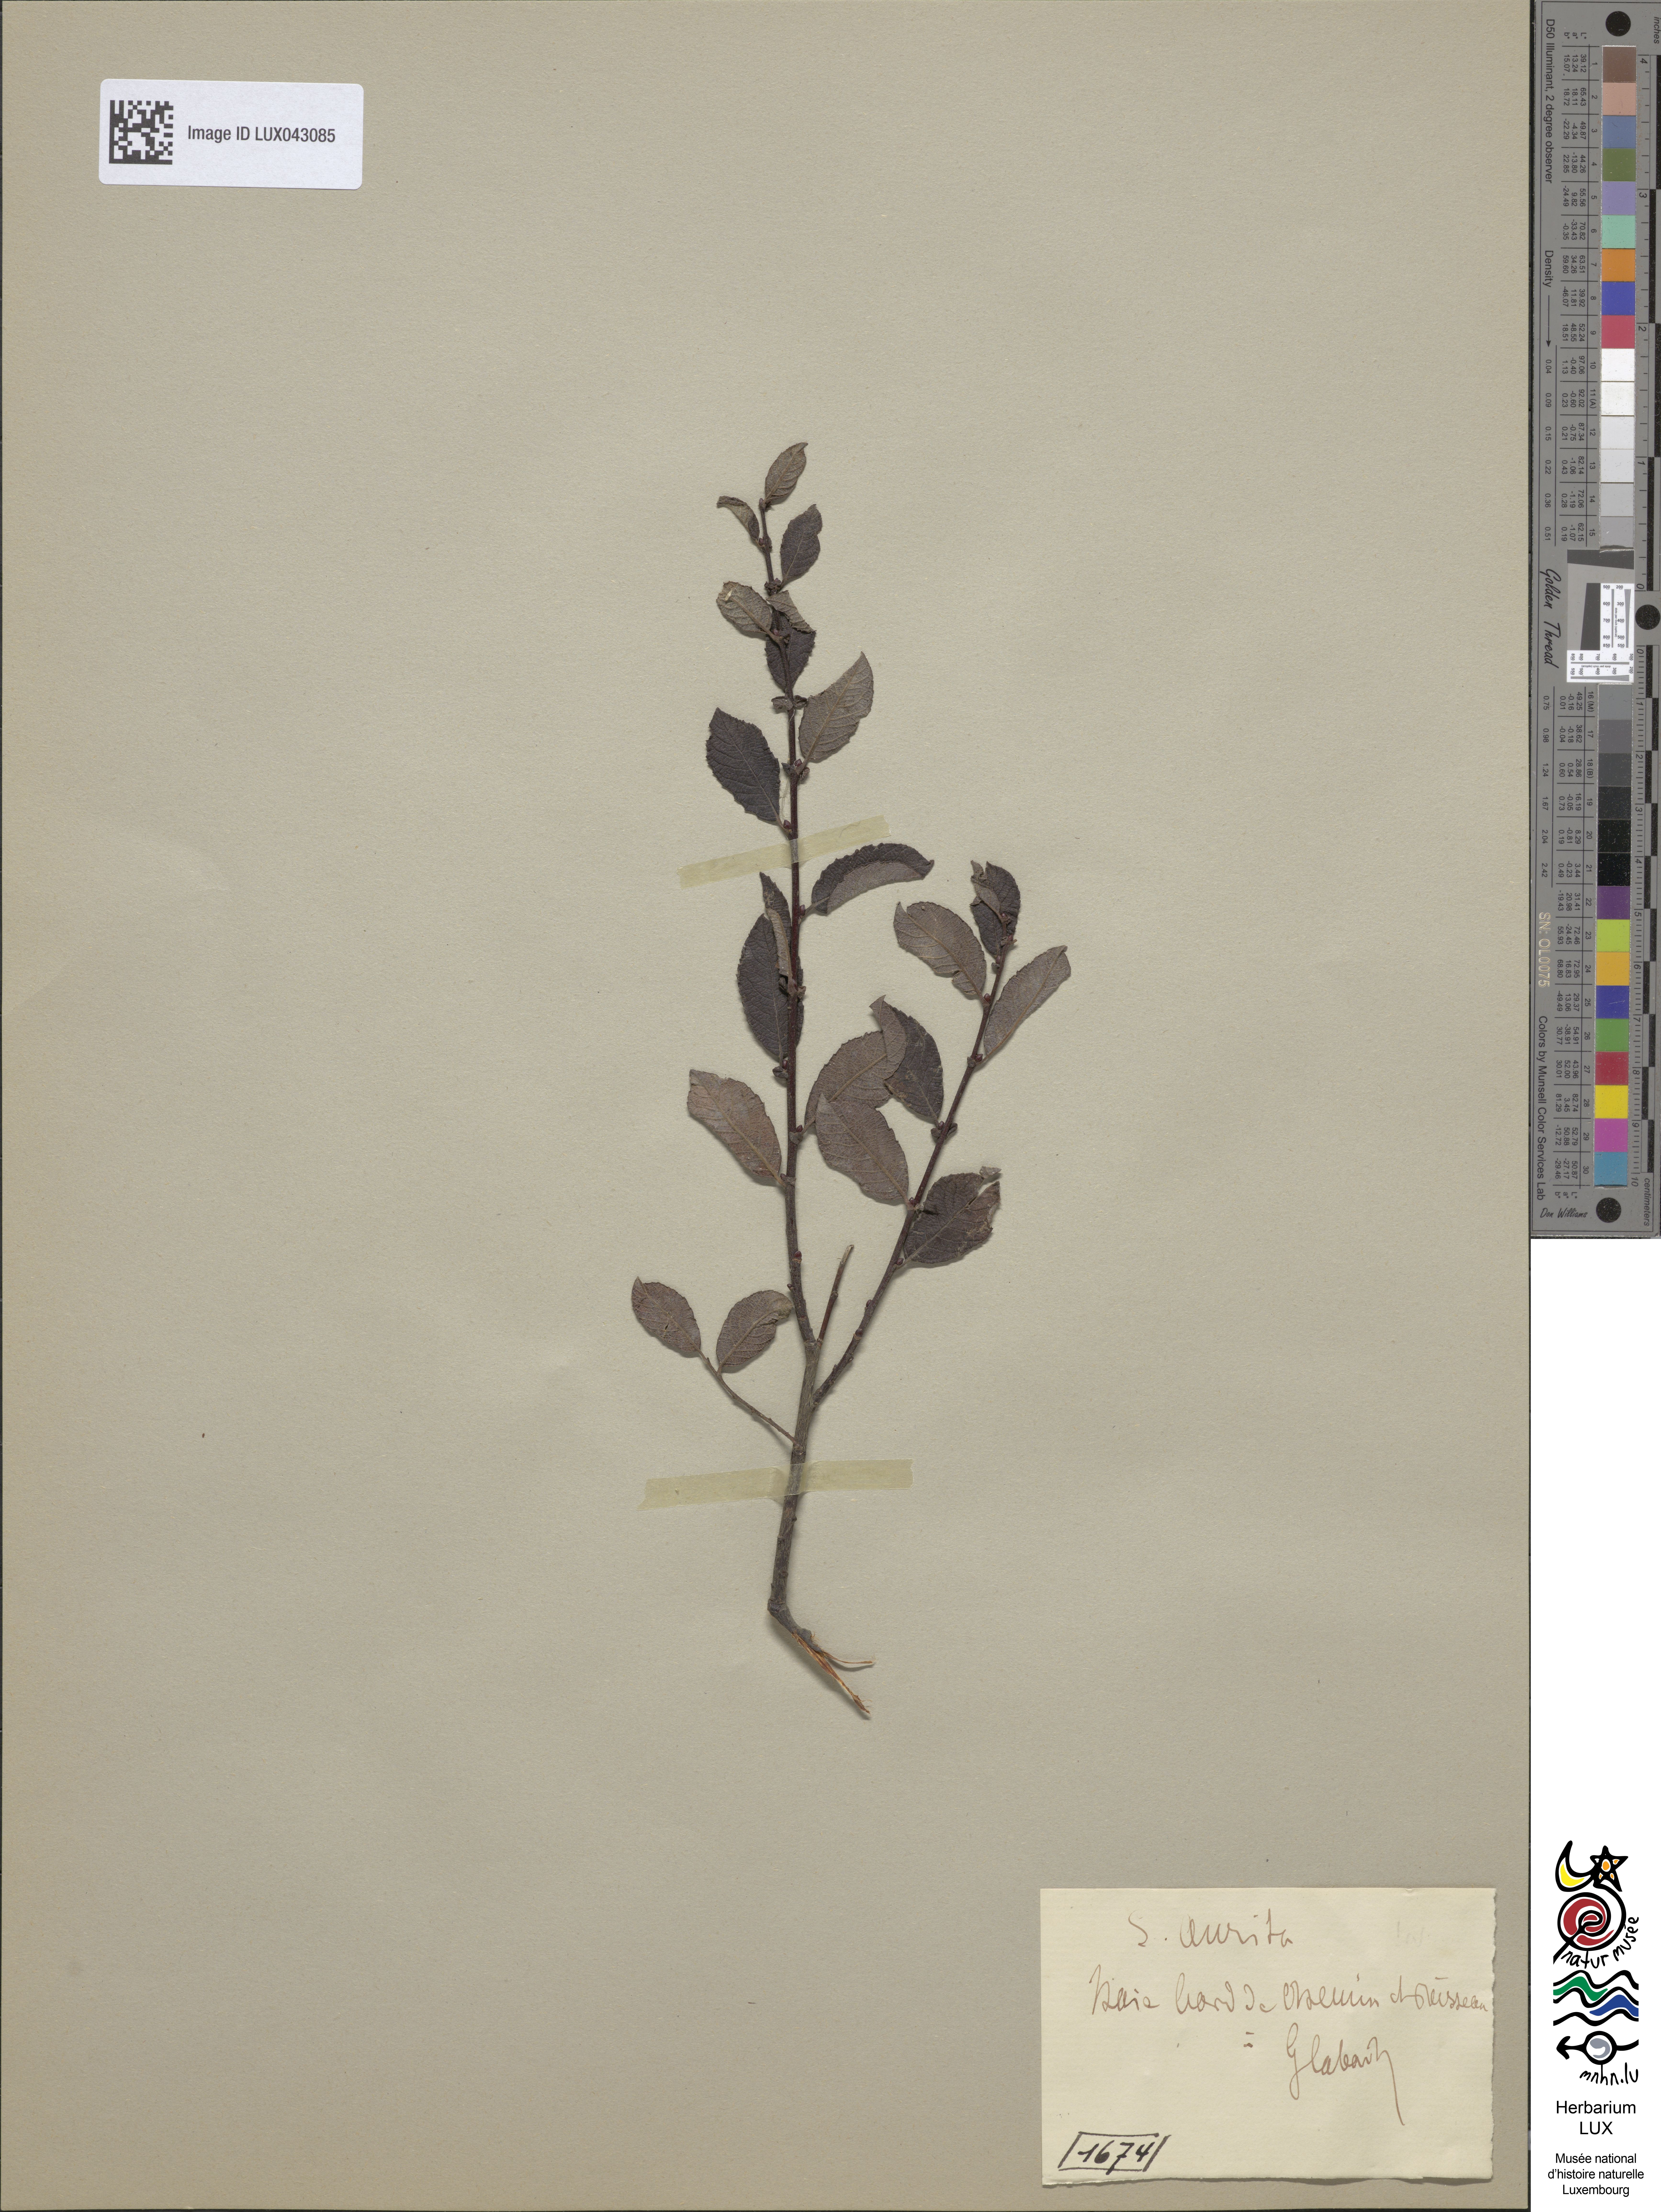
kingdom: Plantae
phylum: Tracheophyta
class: Magnoliopsida
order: Malpighiales
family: Salicaceae
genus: Salix
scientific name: Salix aurita
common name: Eared willow
